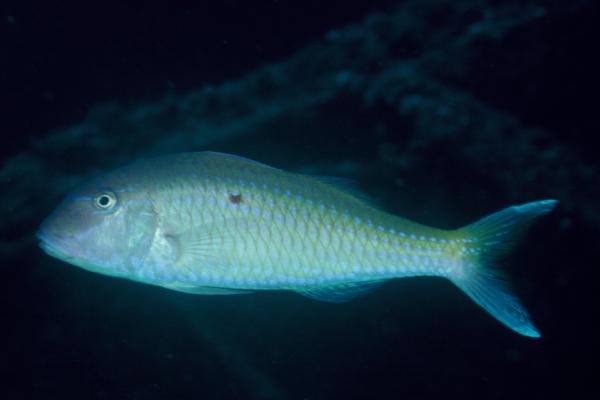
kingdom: Animalia
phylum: Chordata
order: Perciformes
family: Mullidae
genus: Parupeneus
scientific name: Parupeneus heptacanthus
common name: Cinnabar goatfish
